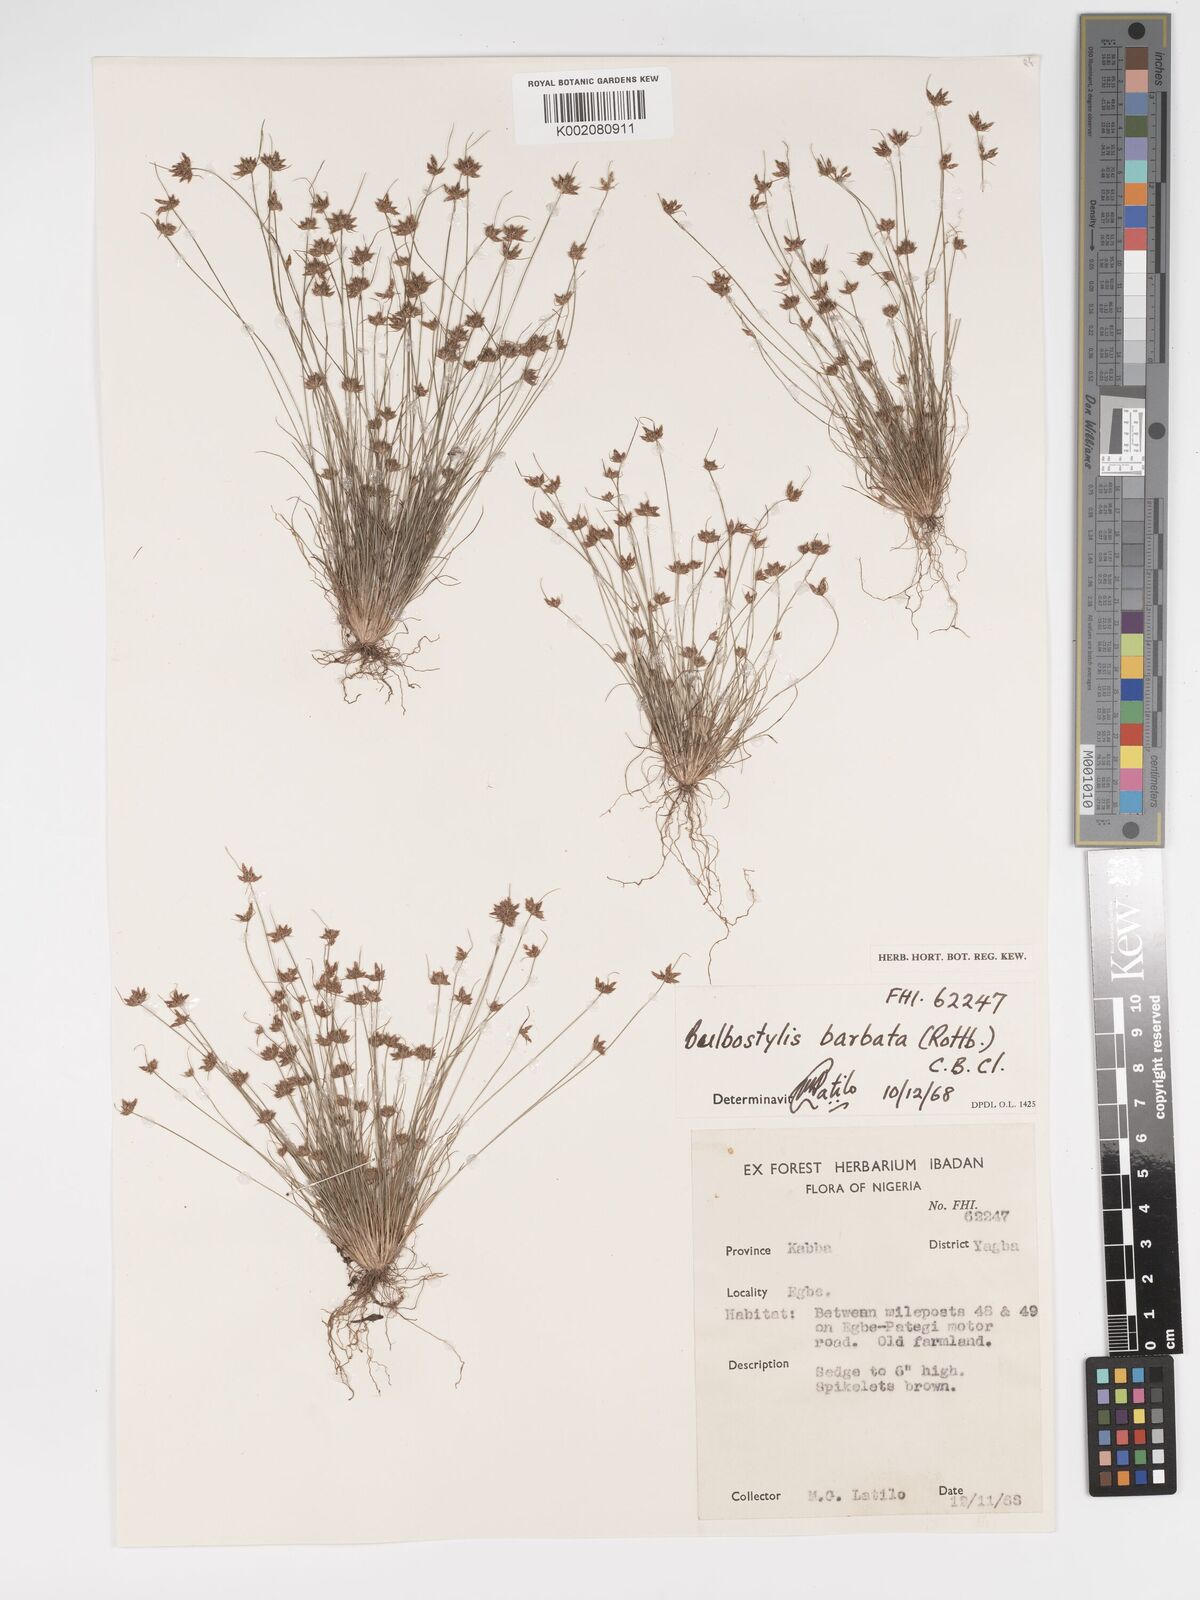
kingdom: Plantae
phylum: Tracheophyta
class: Liliopsida
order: Poales
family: Cyperaceae
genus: Bulbostylis
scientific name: Bulbostylis barbata
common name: Watergrass
